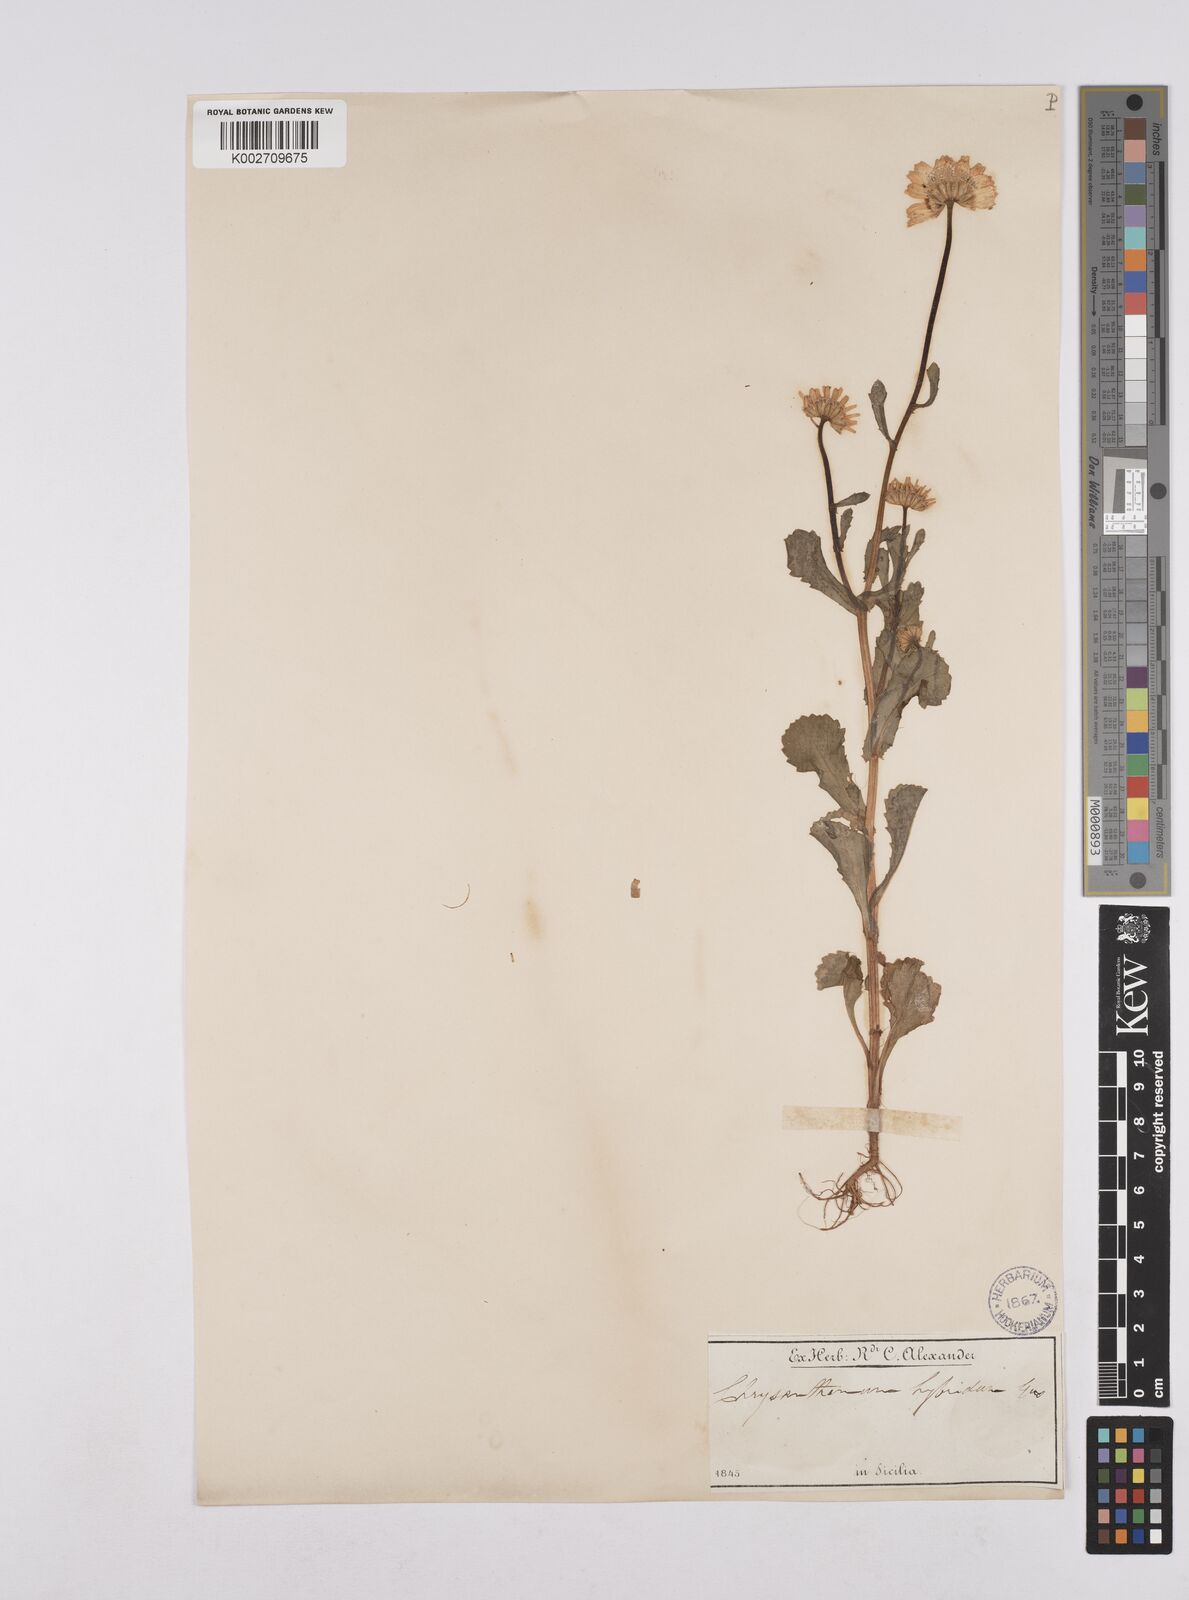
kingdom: Plantae
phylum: Tracheophyta
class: Magnoliopsida
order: Asterales
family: Asteraceae
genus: Coleostephus
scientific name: Coleostephus paludosus
